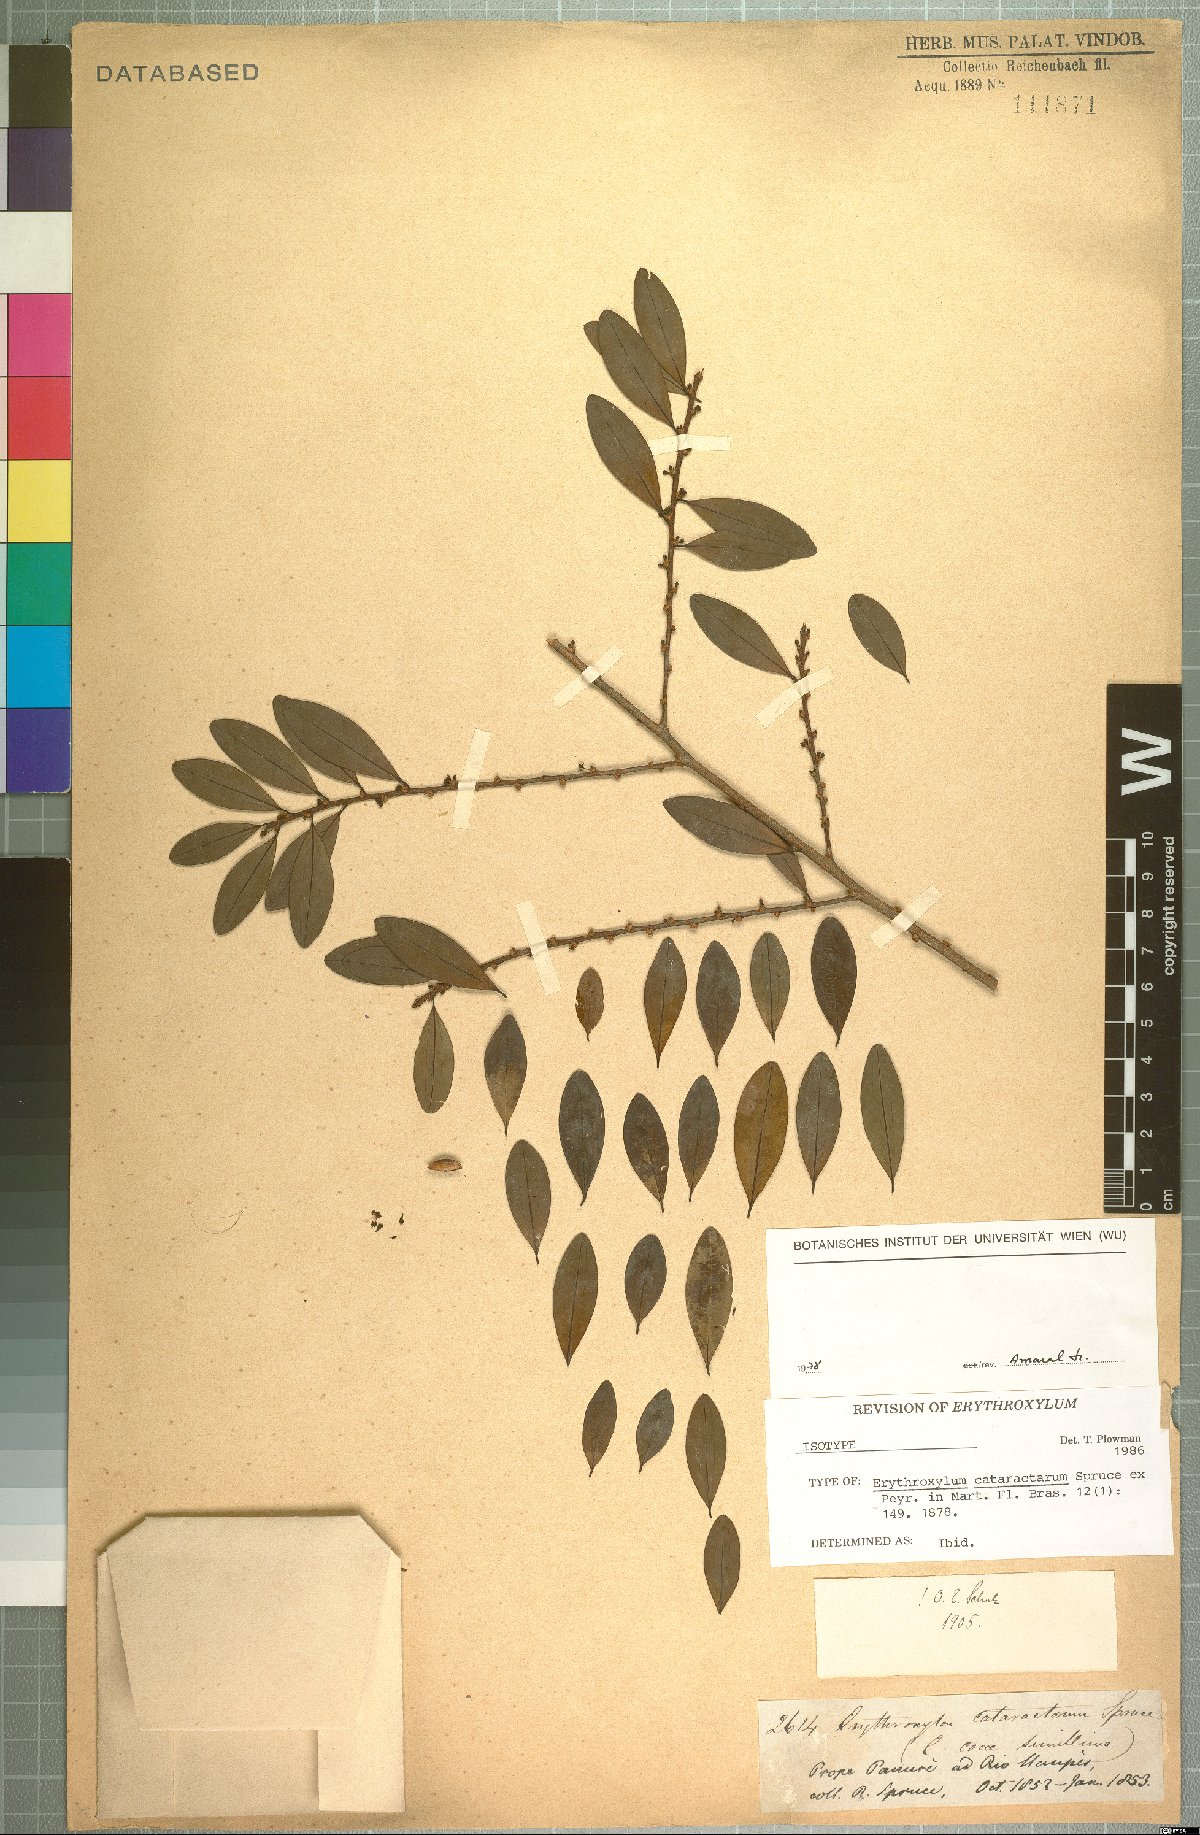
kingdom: Plantae
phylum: Tracheophyta
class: Magnoliopsida
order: Malpighiales
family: Erythroxylaceae
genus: Erythroxylum
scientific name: Erythroxylum cataractarum
